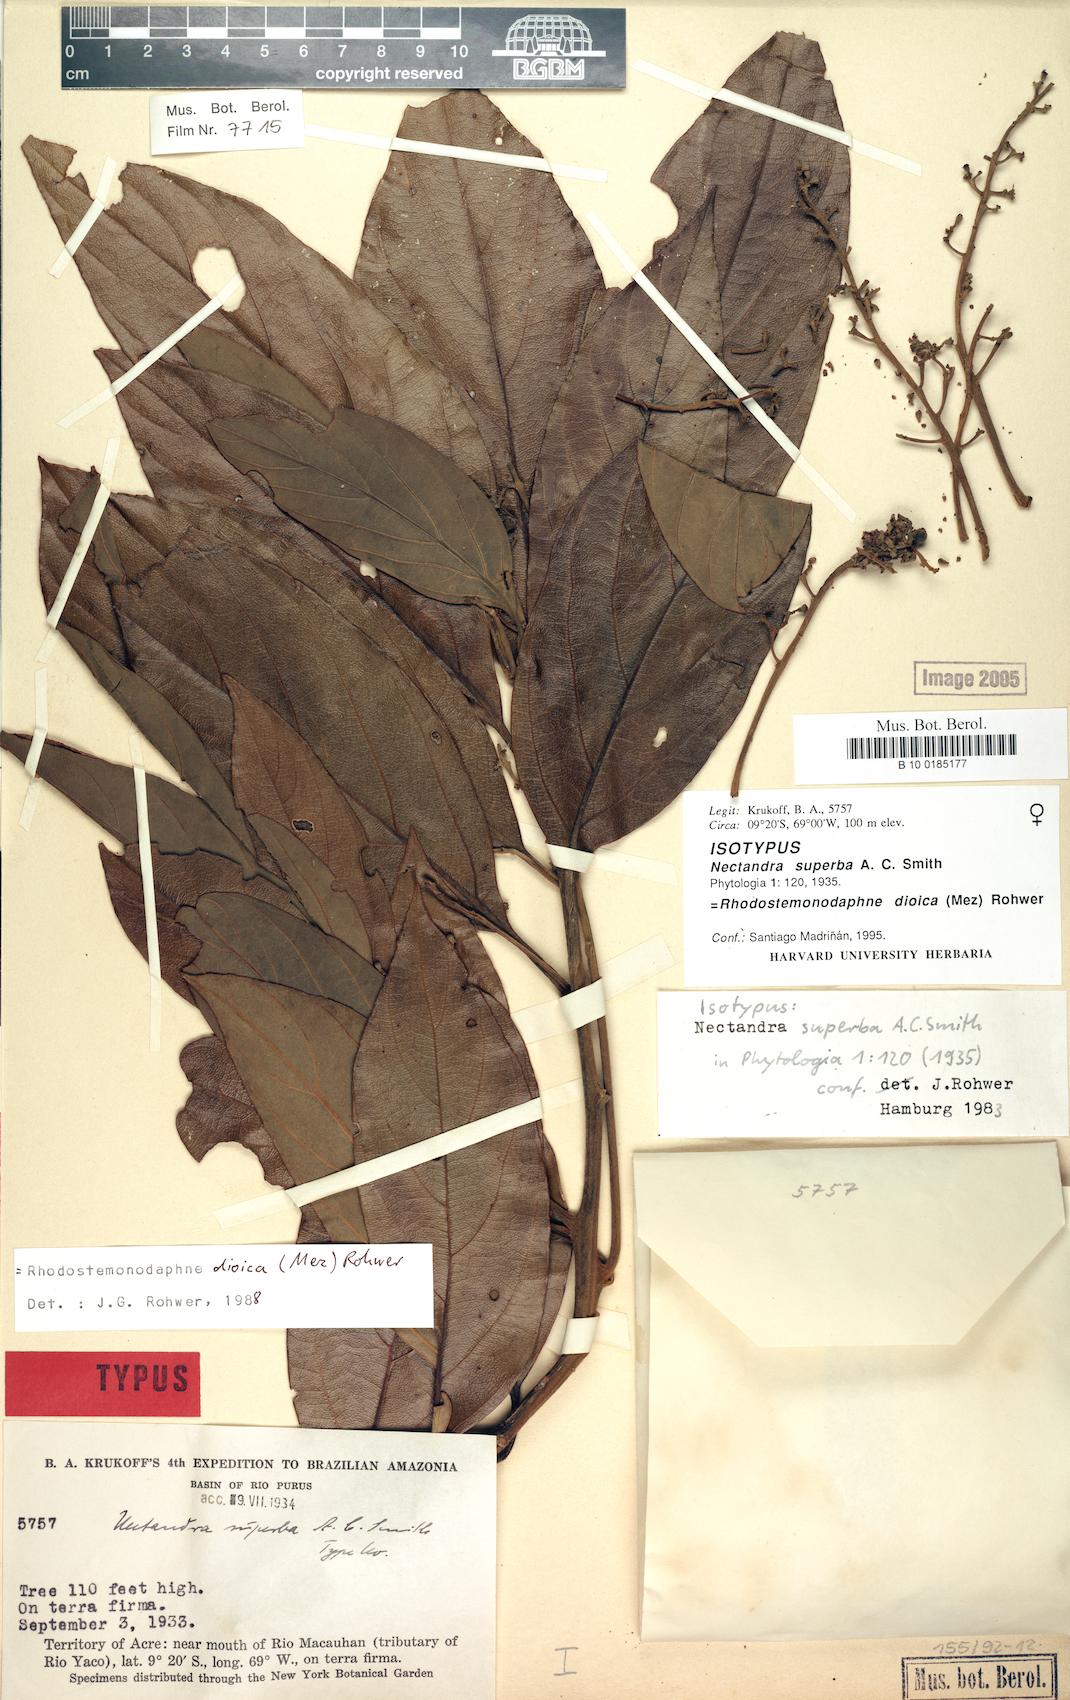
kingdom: Plantae
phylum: Tracheophyta
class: Magnoliopsida
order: Laurales
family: Lauraceae
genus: Rhodostemonodaphne
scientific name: Rhodostemonodaphne dioica
